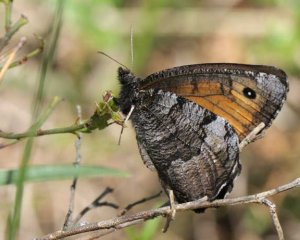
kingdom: Animalia
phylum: Arthropoda
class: Insecta
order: Lepidoptera
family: Nymphalidae
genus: Oeneis
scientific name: Oeneis macounii
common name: Macoun's Arctic
